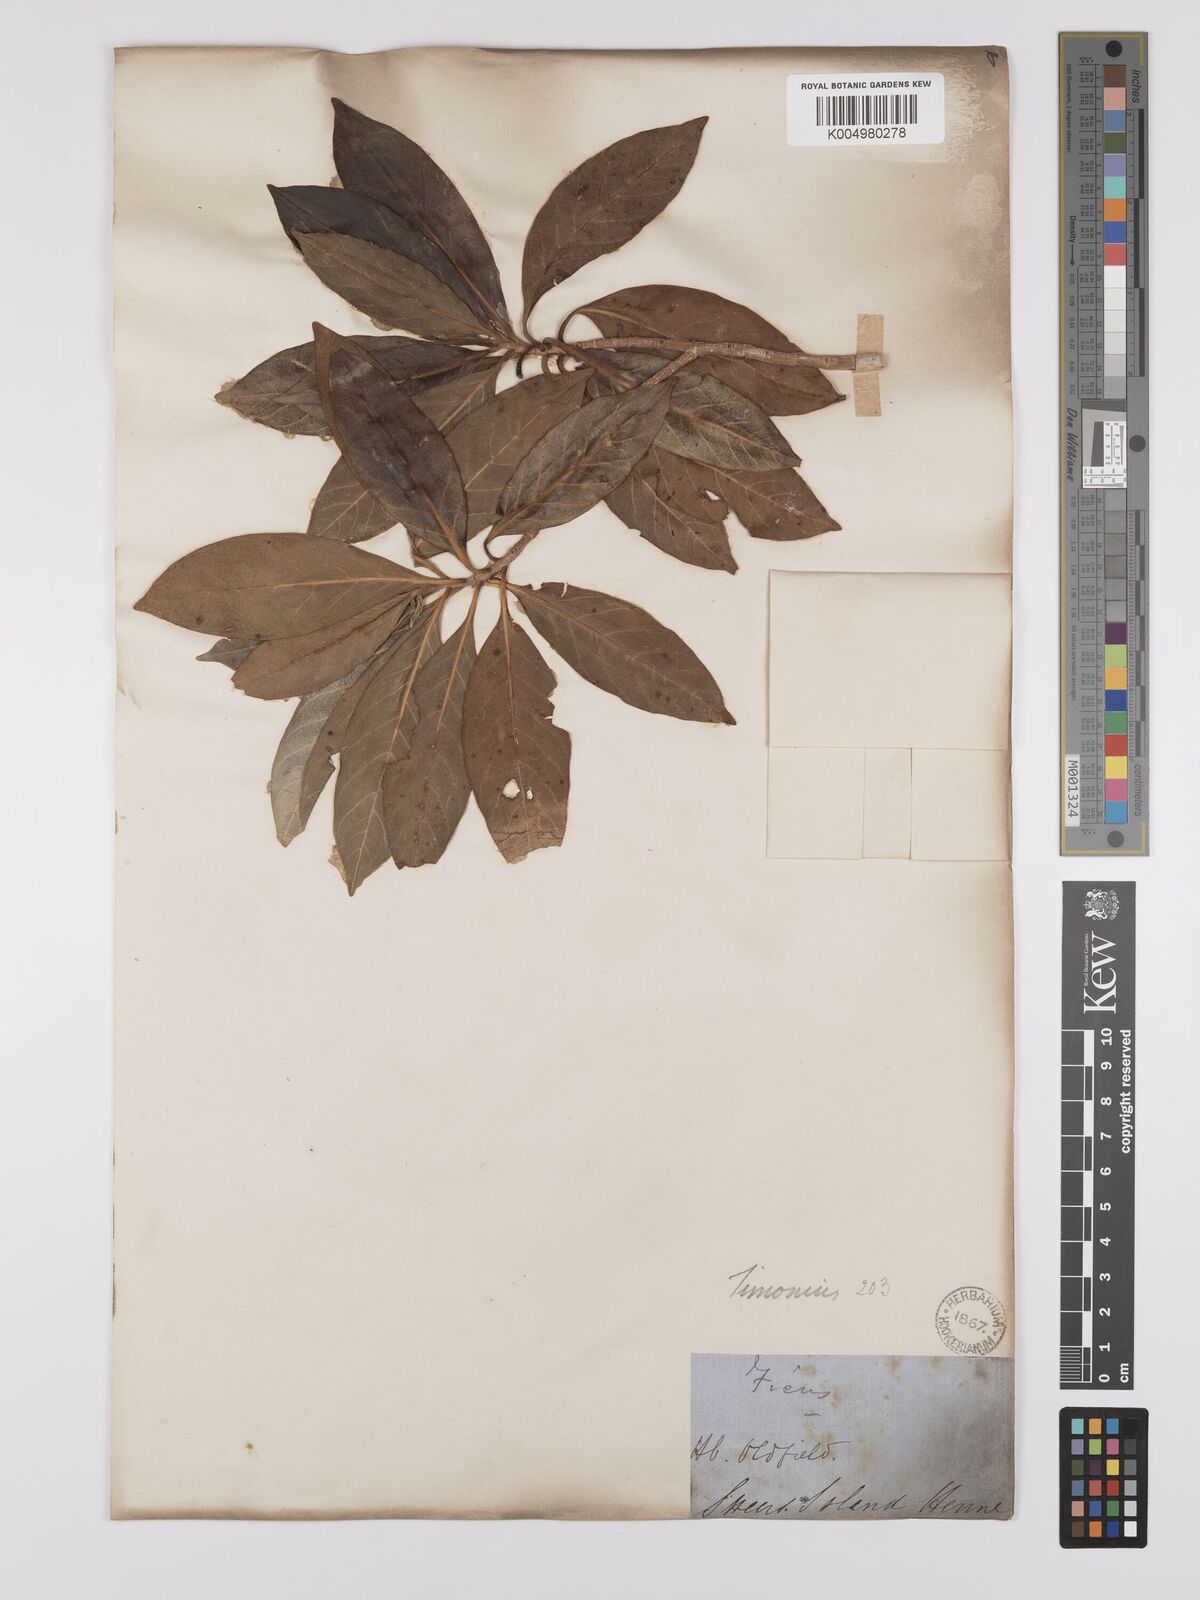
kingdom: Plantae
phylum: Tracheophyta
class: Magnoliopsida
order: Gentianales
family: Rubiaceae
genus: Timonius
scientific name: Timonius timon
